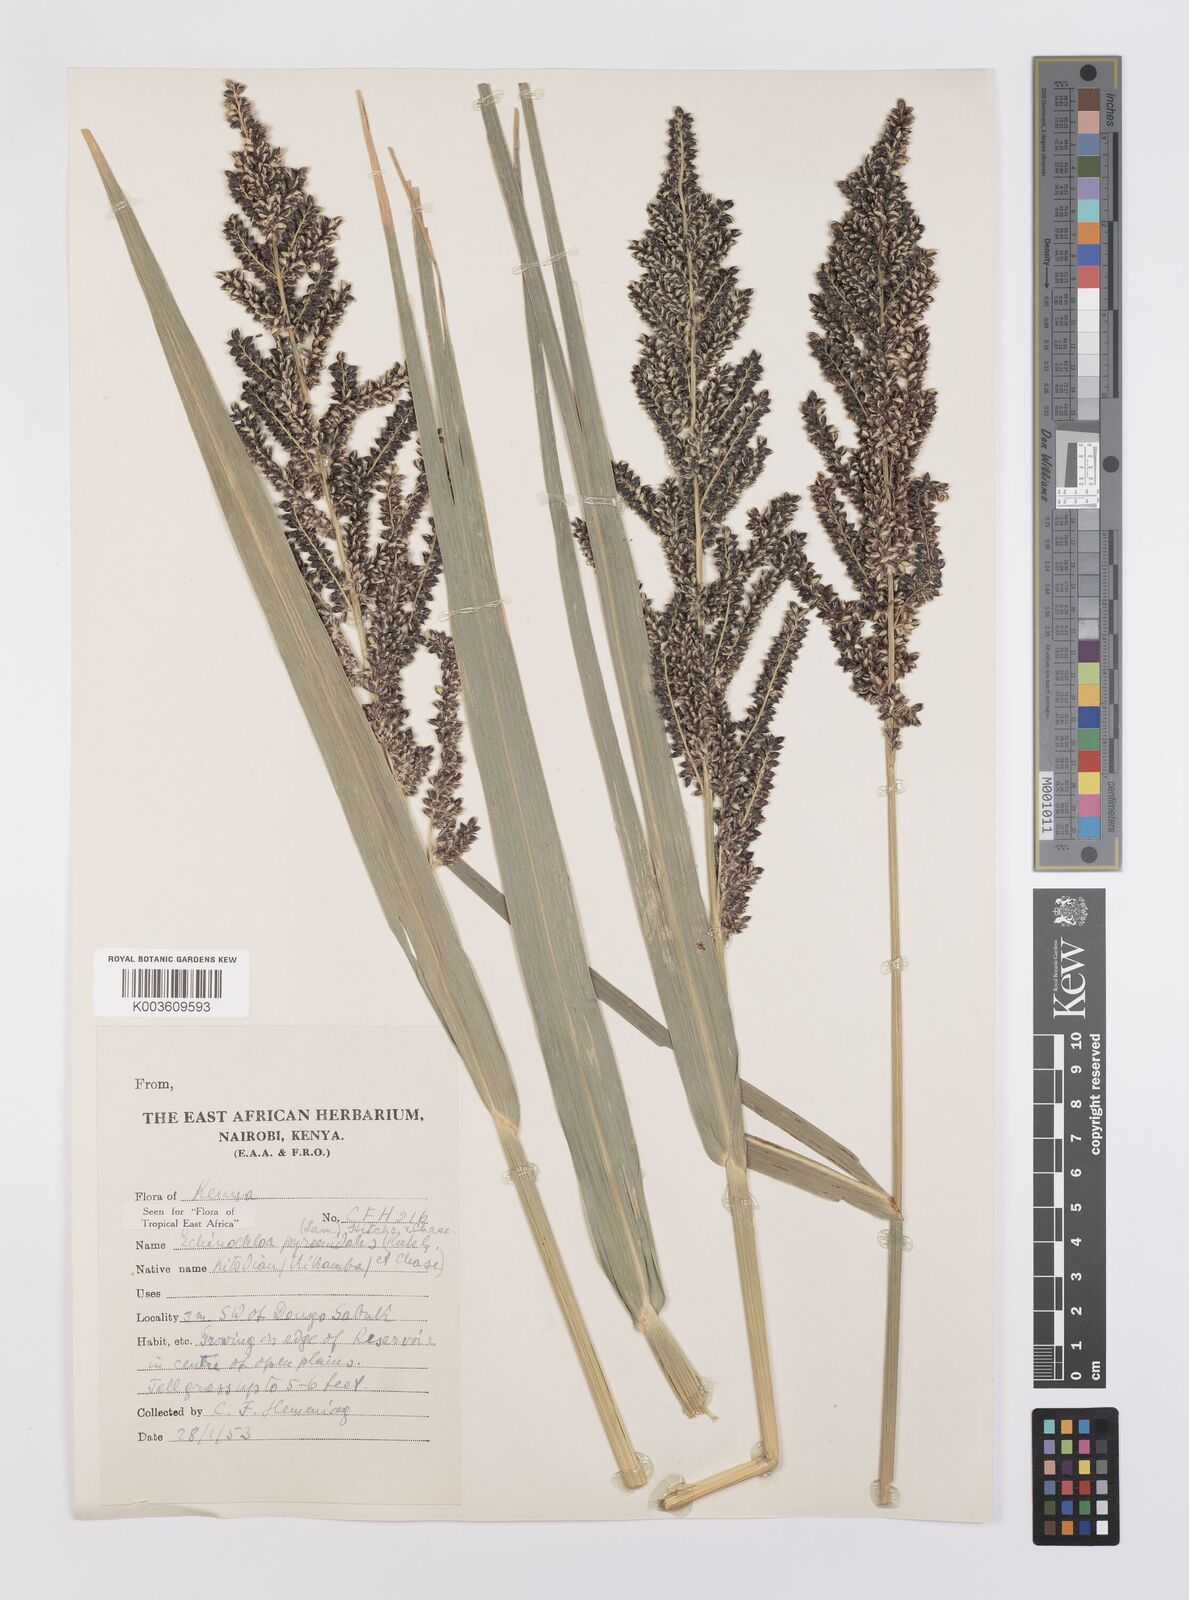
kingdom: Plantae
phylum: Tracheophyta
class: Liliopsida
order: Poales
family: Poaceae
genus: Echinochloa
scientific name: Echinochloa pyramidalis
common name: Antelope grass
